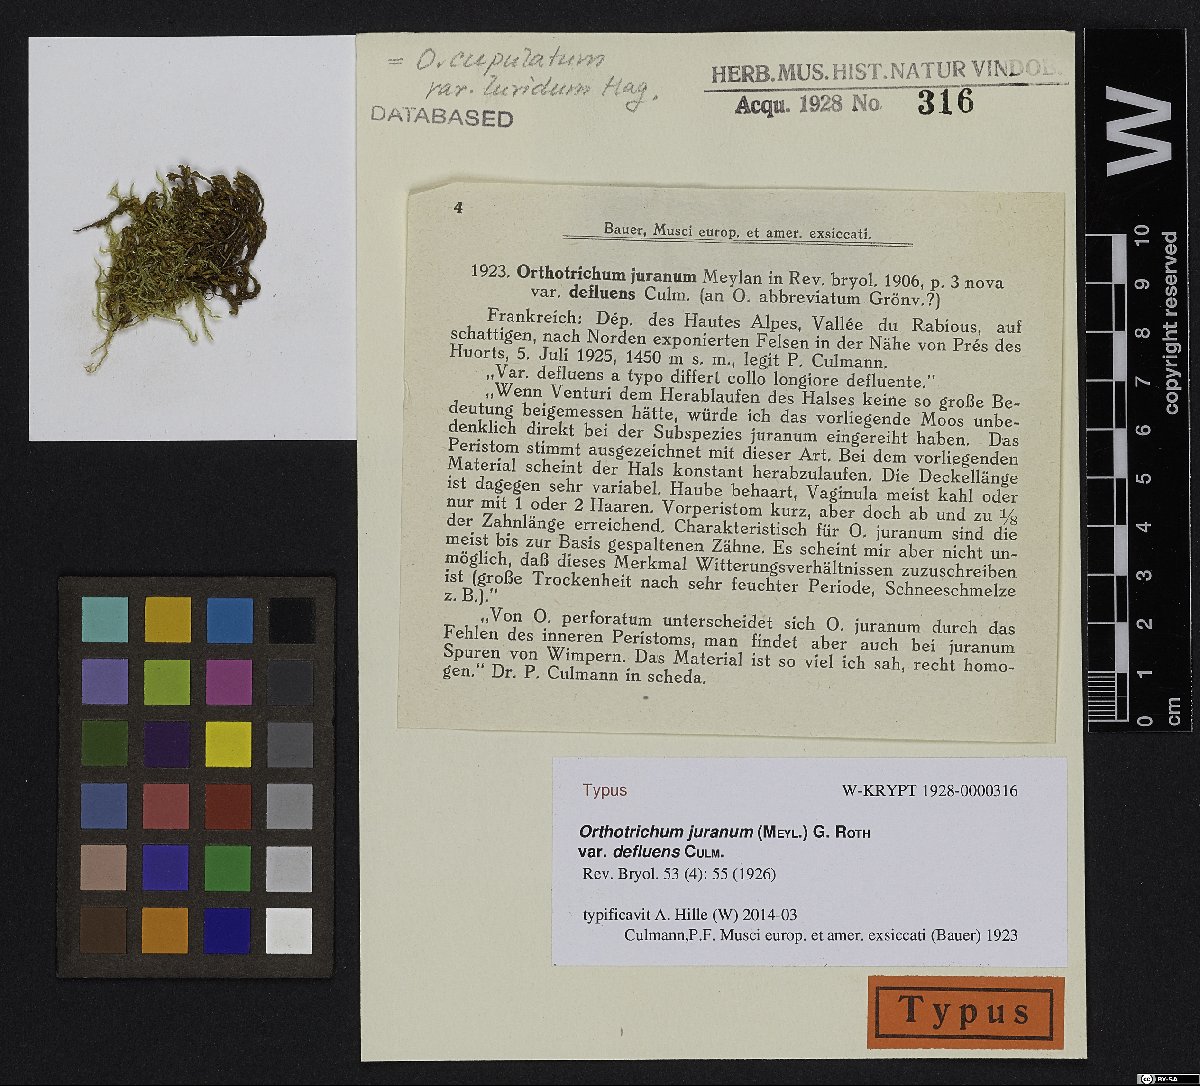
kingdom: Plantae
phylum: Bryophyta
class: Bryopsida
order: Orthotrichales
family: Orthotrichaceae
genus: Orthotrichum
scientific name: Orthotrichum cupulatum
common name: Hooded bristle-moss
